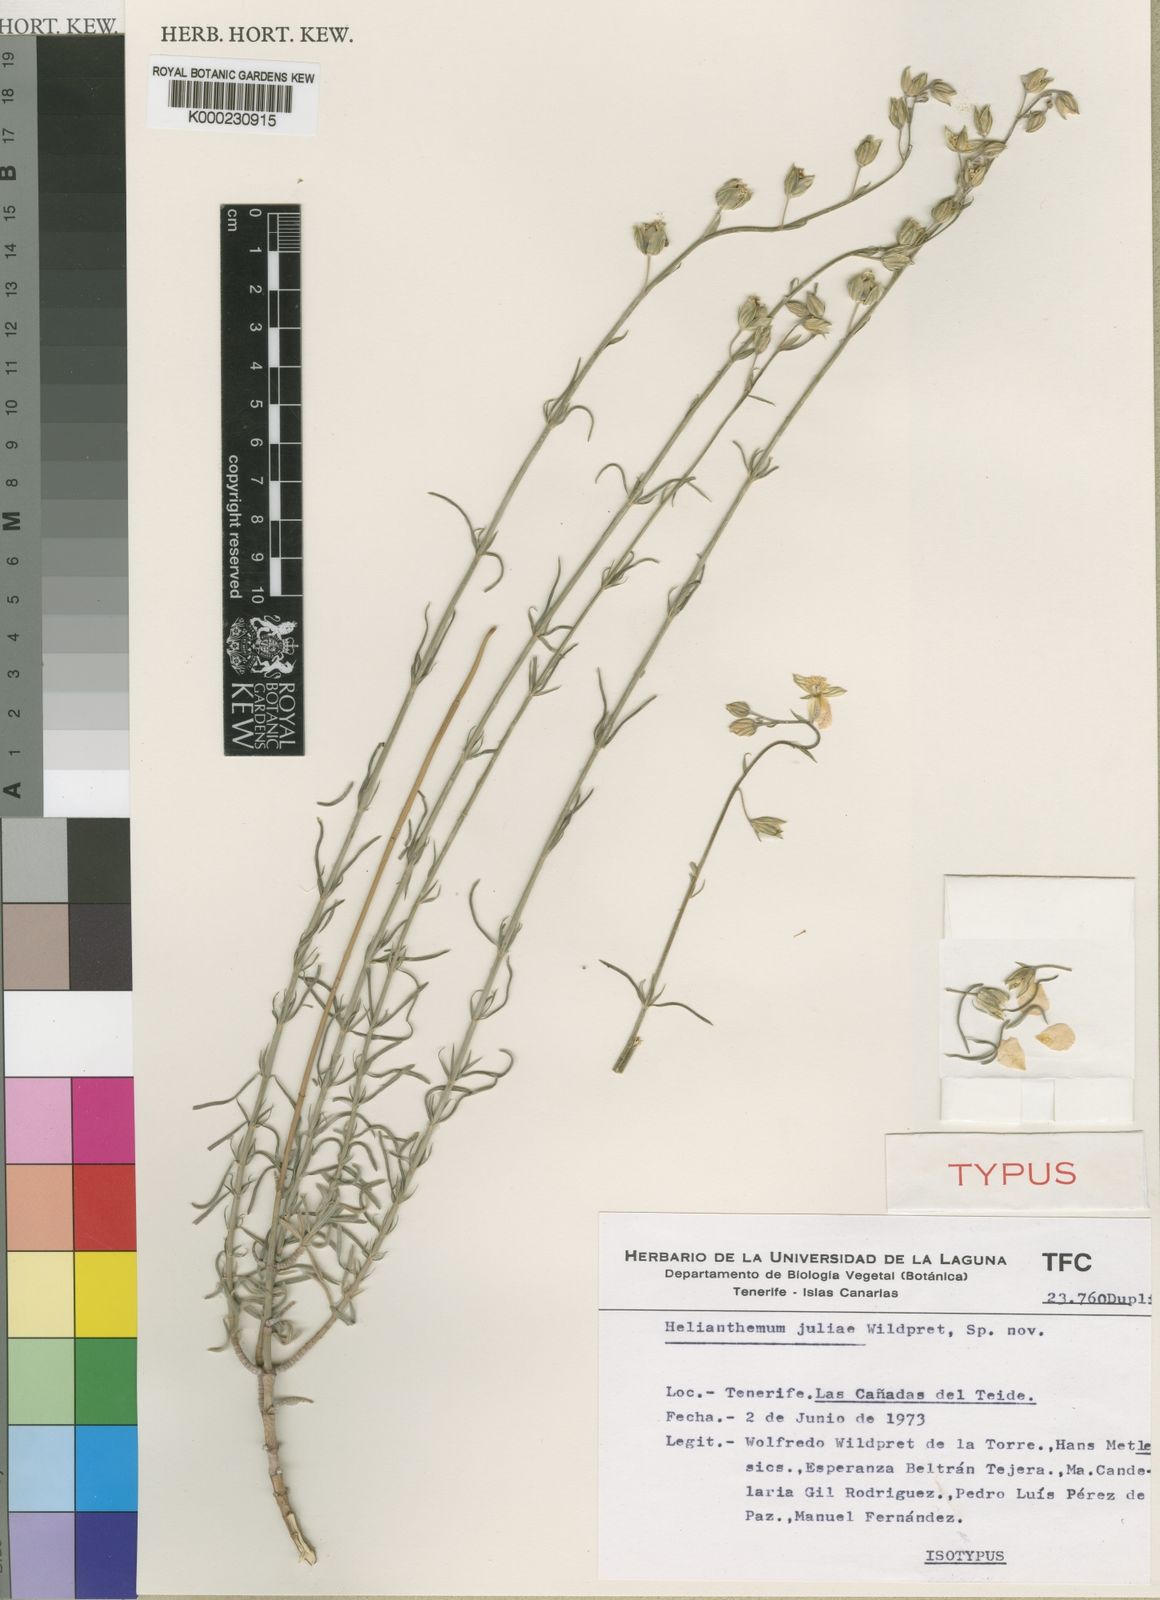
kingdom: Plantae
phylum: Tracheophyta
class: Magnoliopsida
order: Malvales
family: Cistaceae
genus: Helianthemum
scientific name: Helianthemum juliae
